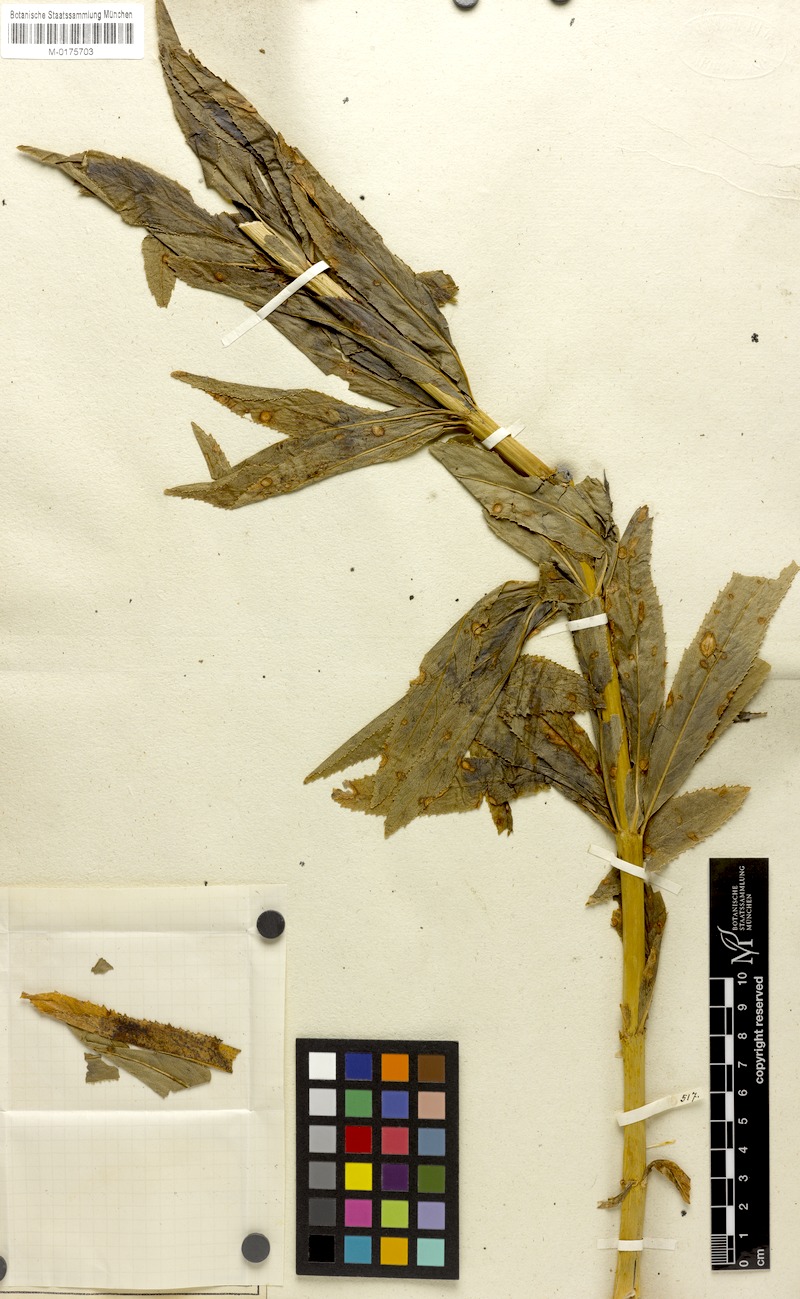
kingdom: Plantae
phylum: Tracheophyta
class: Magnoliopsida
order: Asterales
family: Campanulaceae
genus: Siphocampylus
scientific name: Siphocampylus verticillatus
